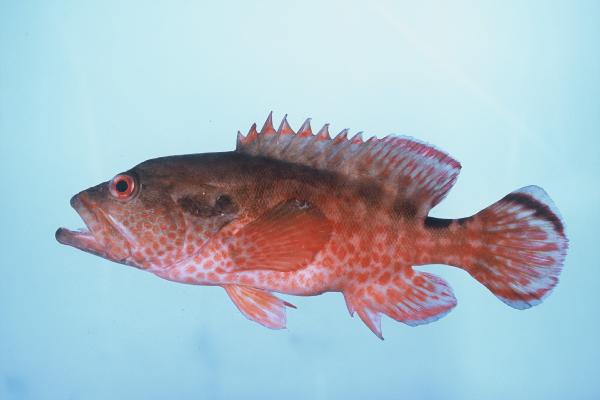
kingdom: Animalia
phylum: Chordata
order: Perciformes
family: Serranidae
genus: Cephalopholis
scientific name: Cephalopholis leopardus
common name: Leopard hind
